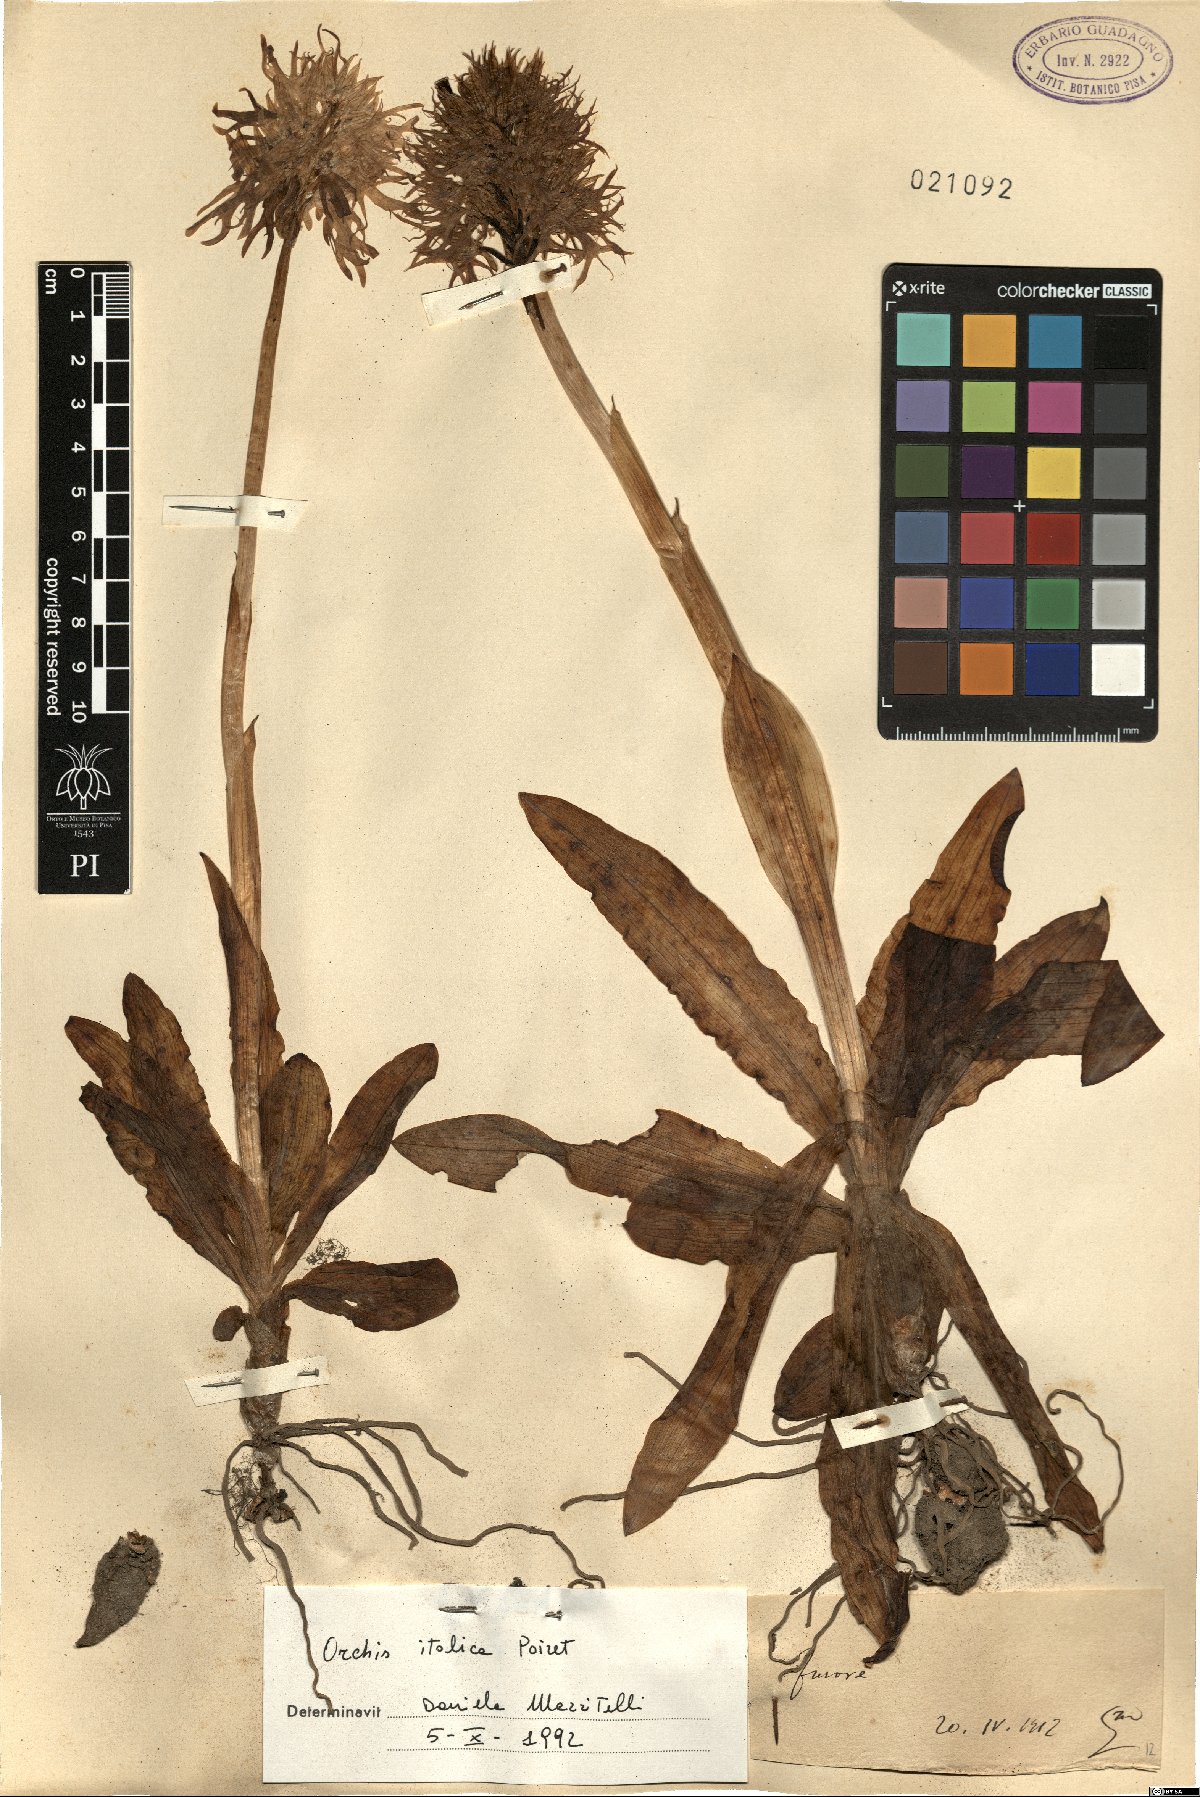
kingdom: Plantae
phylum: Tracheophyta
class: Liliopsida
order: Asparagales
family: Orchidaceae
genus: Orchis
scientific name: Orchis italica
